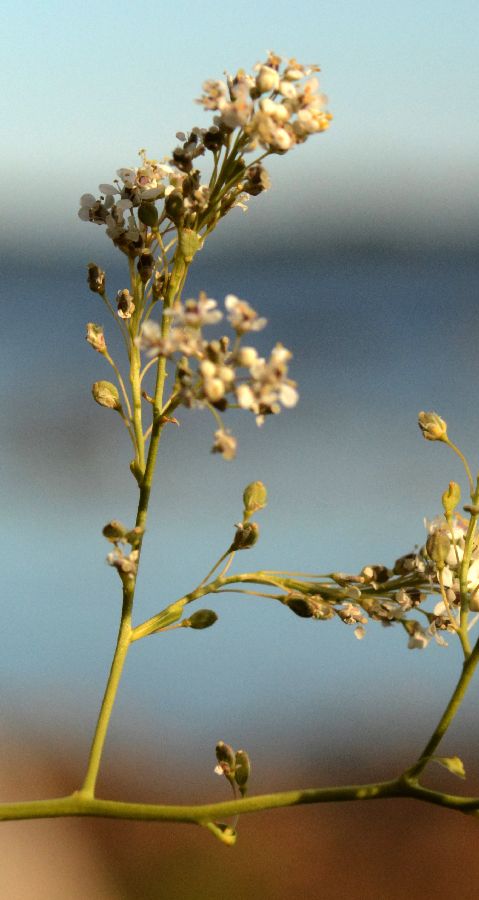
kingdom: Plantae
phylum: Tracheophyta
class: Magnoliopsida
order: Brassicales
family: Brassicaceae
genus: Lepidium
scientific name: Lepidium latifolium
